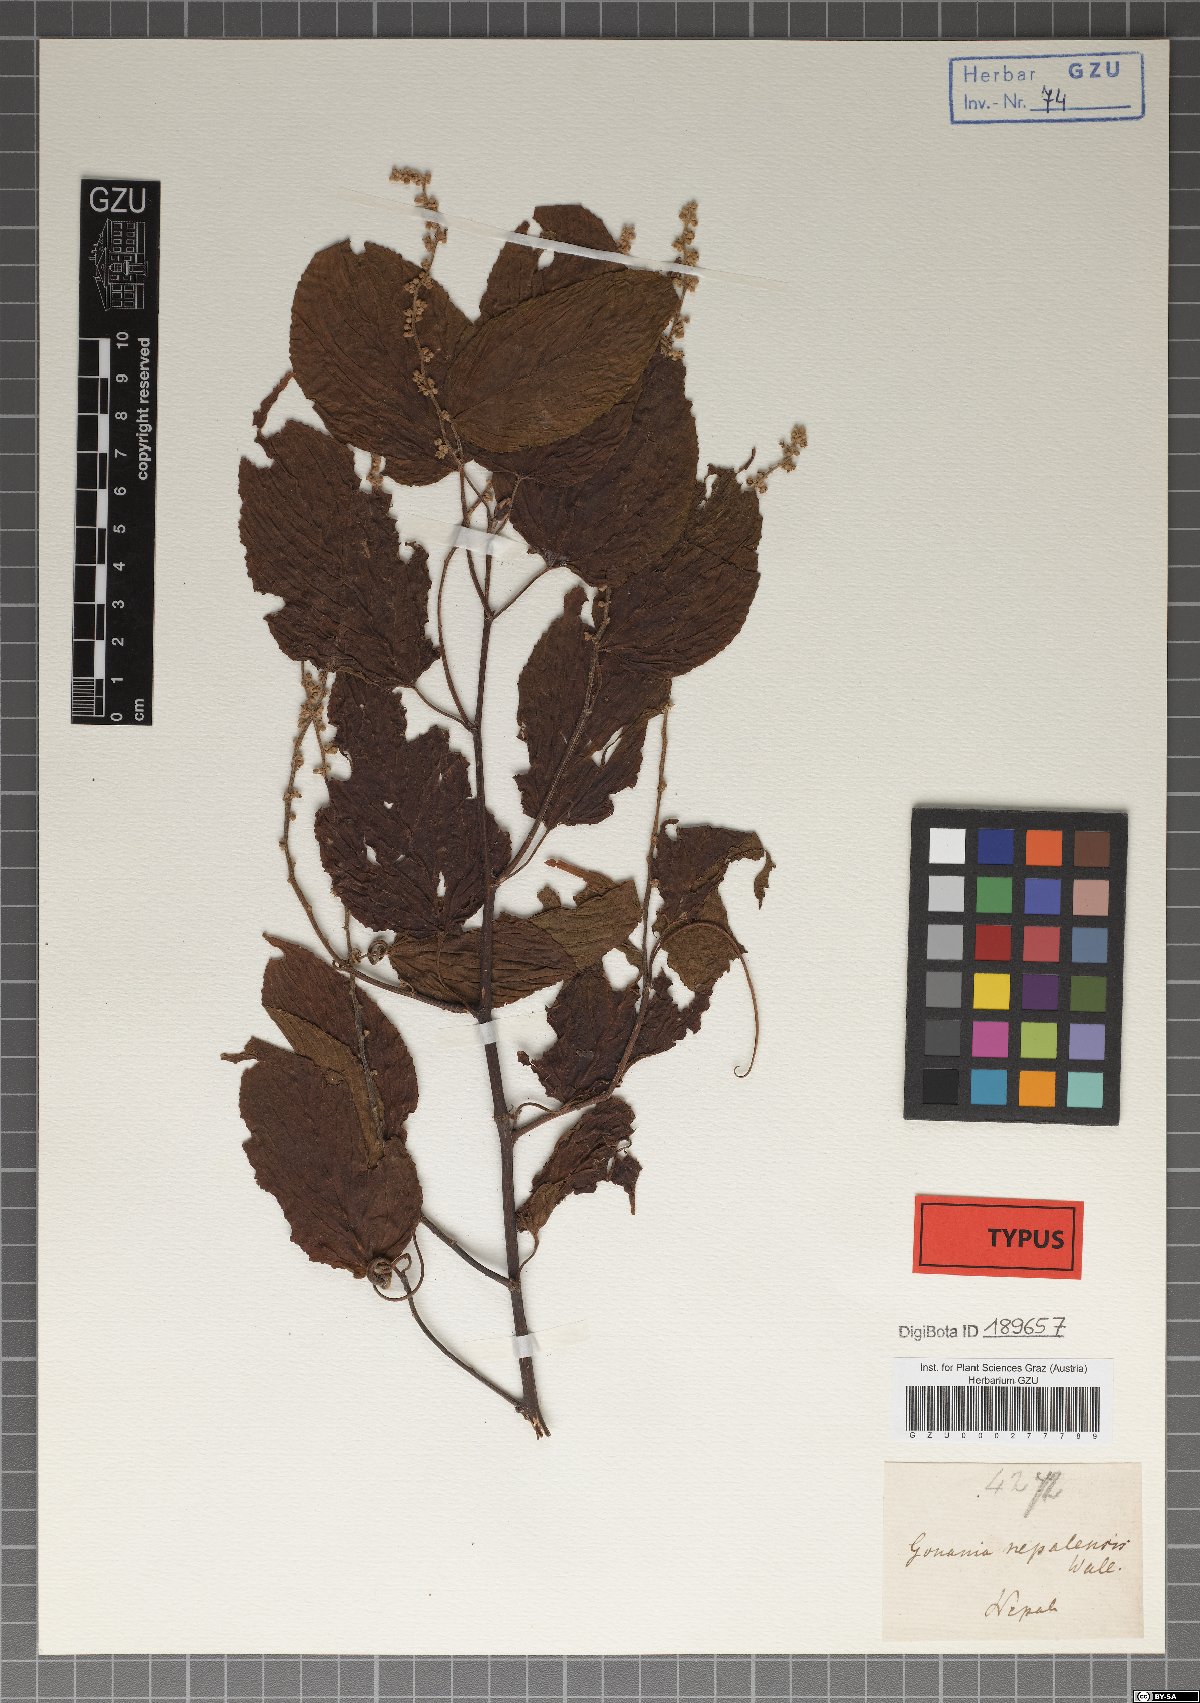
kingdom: Plantae
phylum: Tracheophyta
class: Magnoliopsida
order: Rosales
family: Rhamnaceae
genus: Gouania
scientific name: Gouania napalensis
